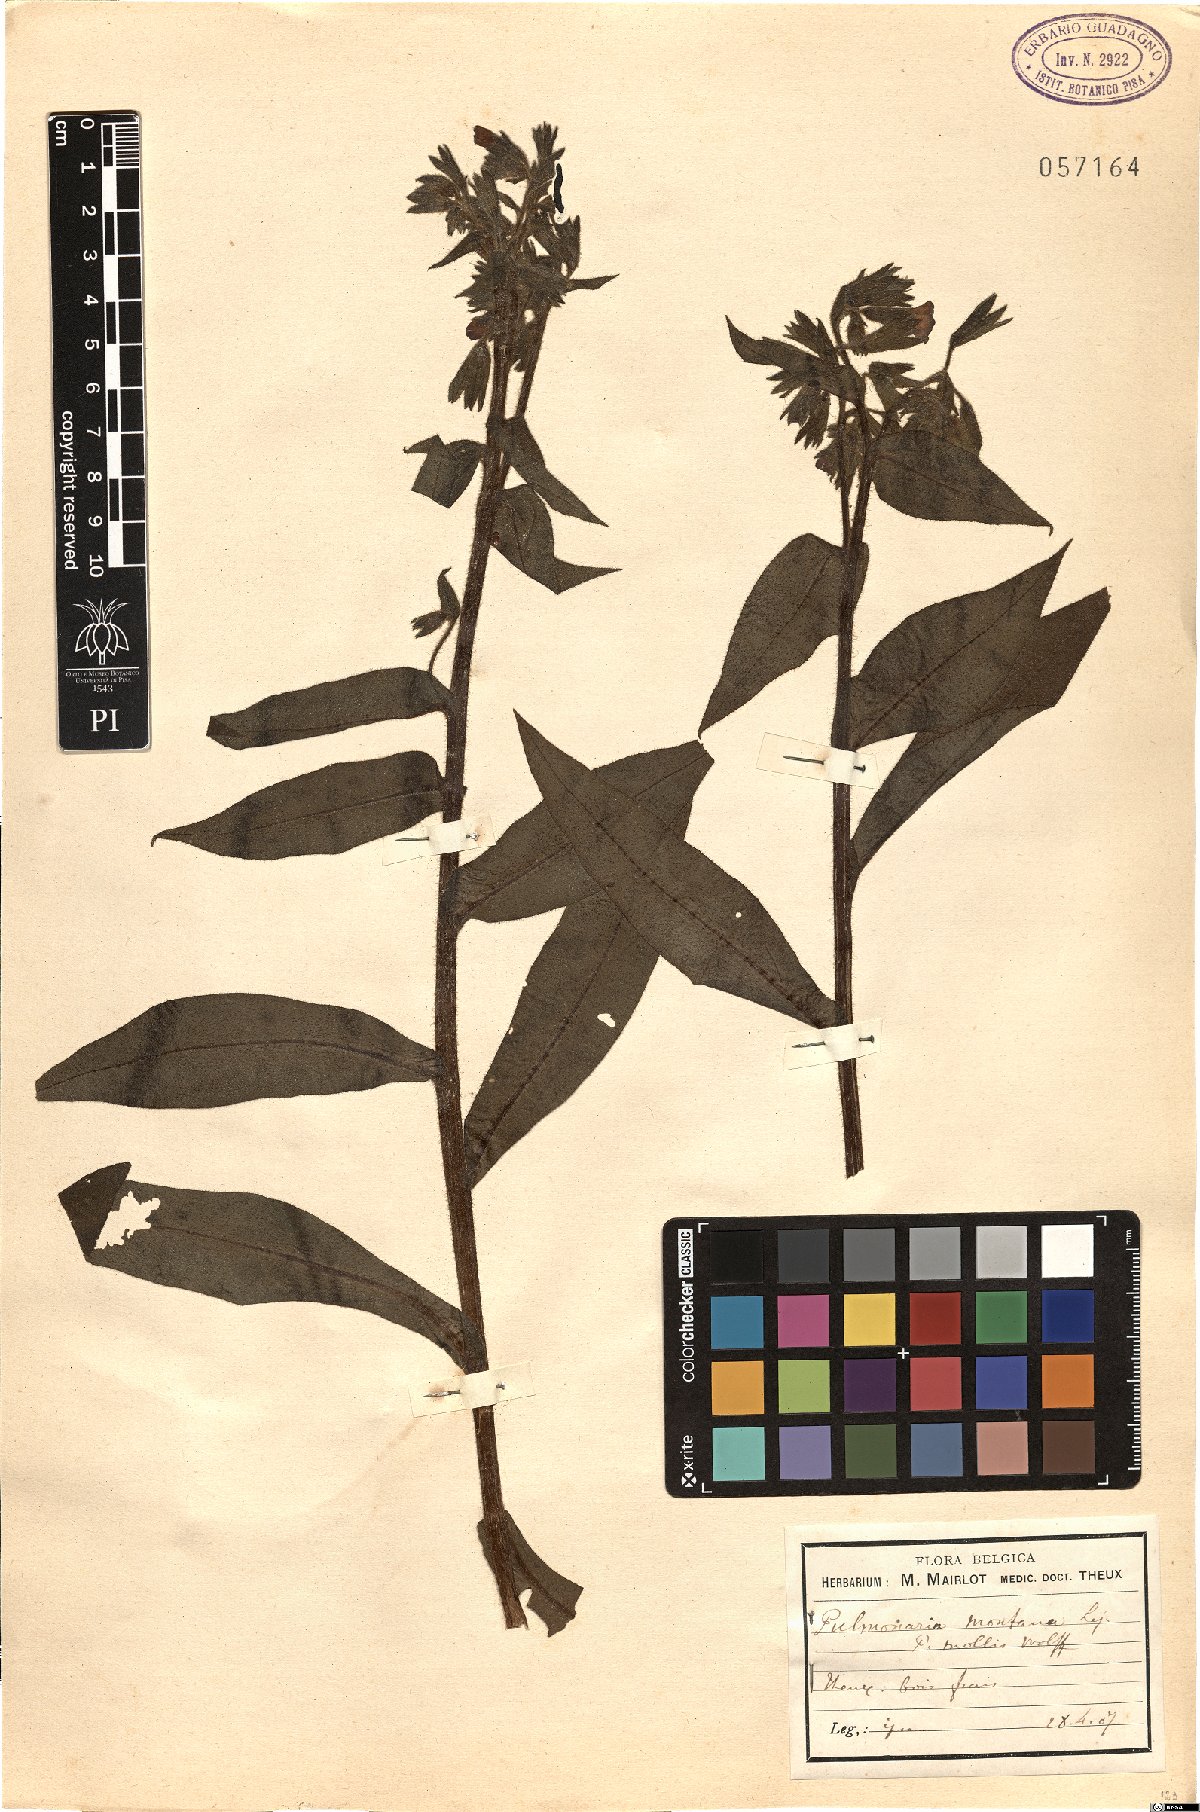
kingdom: Plantae
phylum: Tracheophyta
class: Magnoliopsida
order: Boraginales
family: Boraginaceae
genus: Pulmonaria
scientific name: Pulmonaria montana
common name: Mountain lungwort
